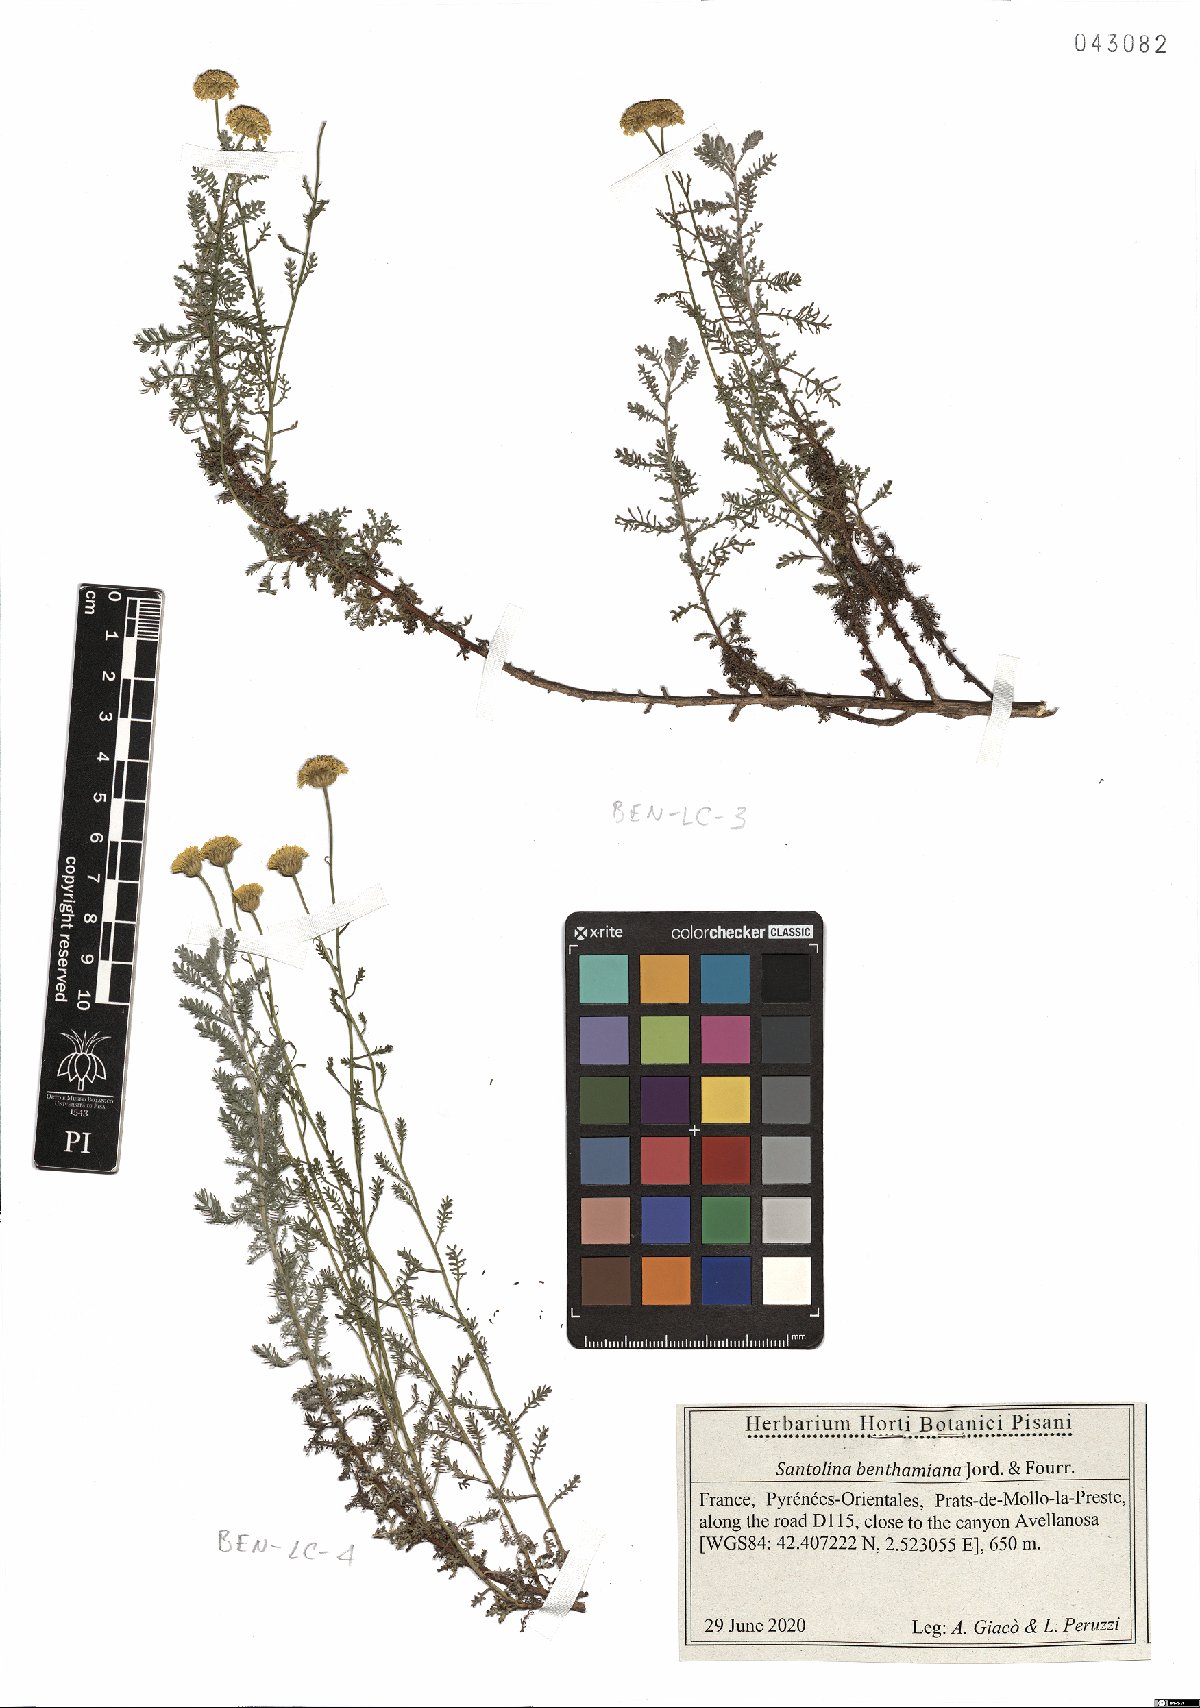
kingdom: Plantae
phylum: Tracheophyta
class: Magnoliopsida
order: Asterales
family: Asteraceae
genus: Santolina
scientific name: Santolina benthamiana
